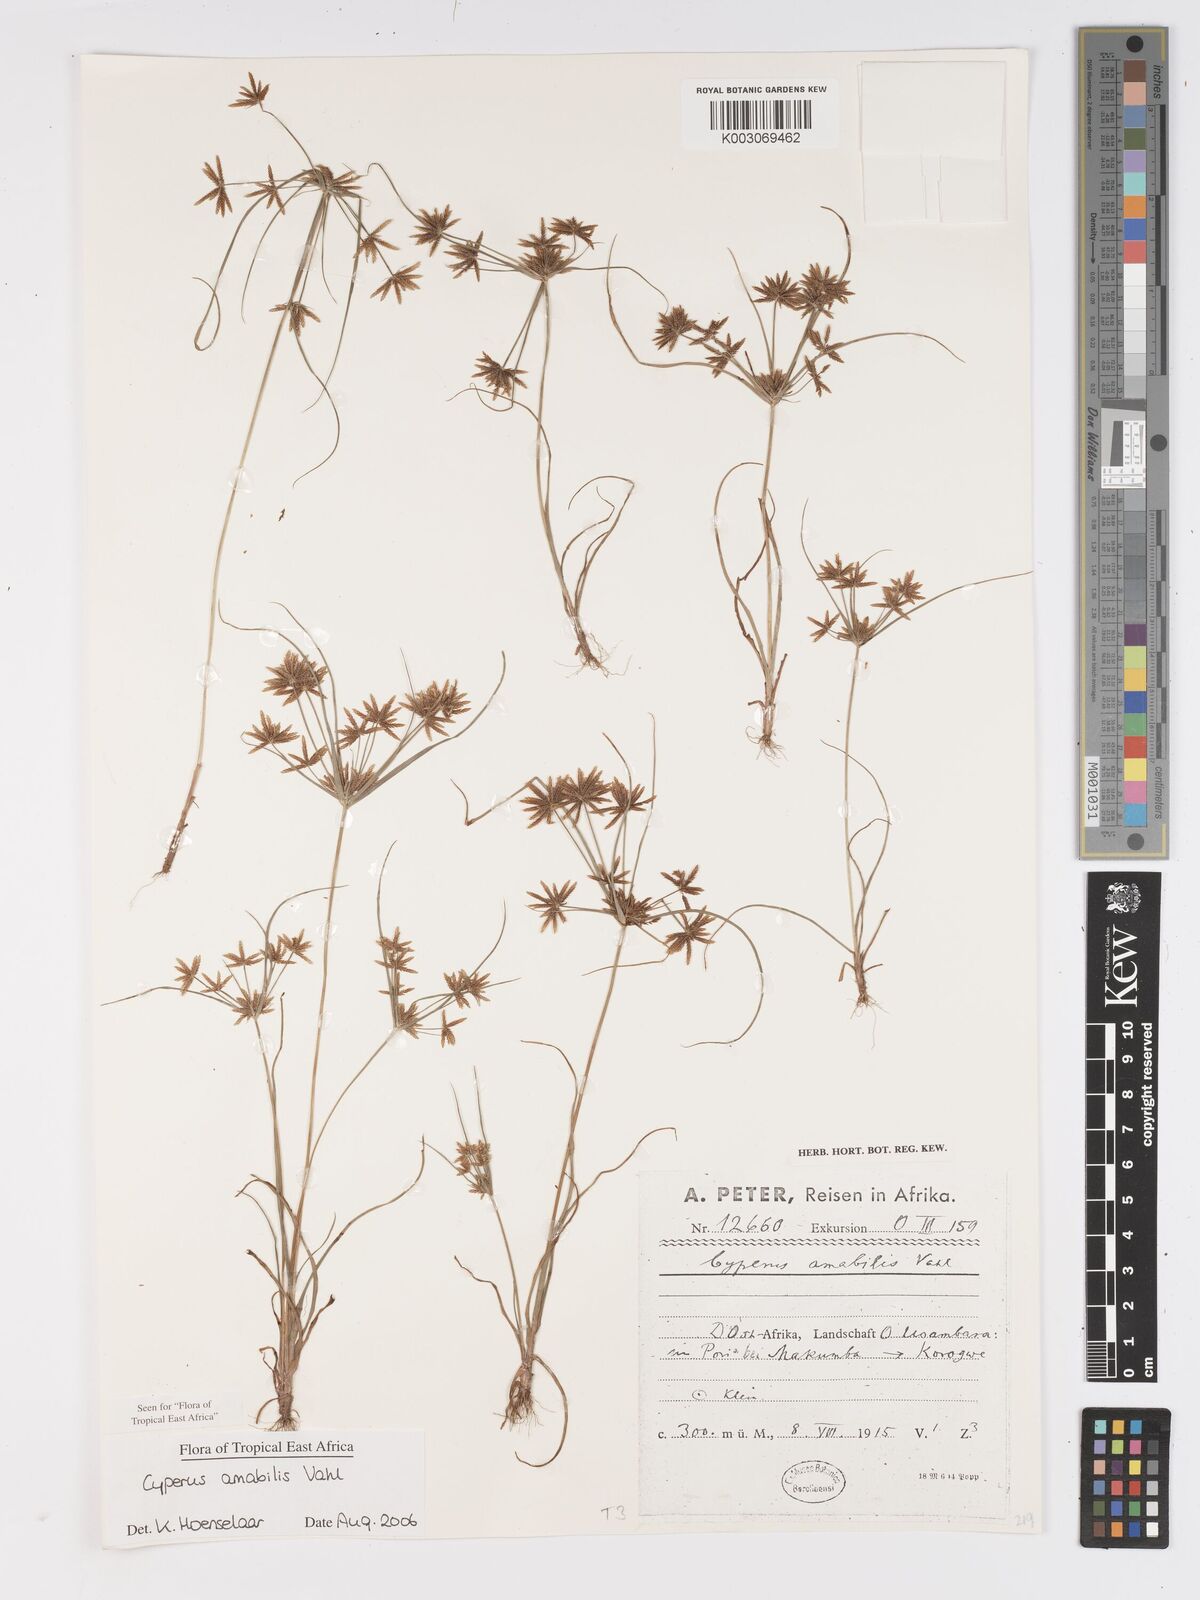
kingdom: Plantae
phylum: Tracheophyta
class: Liliopsida
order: Poales
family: Cyperaceae
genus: Cyperus
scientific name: Cyperus amabilis
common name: Foothill flat sedge
